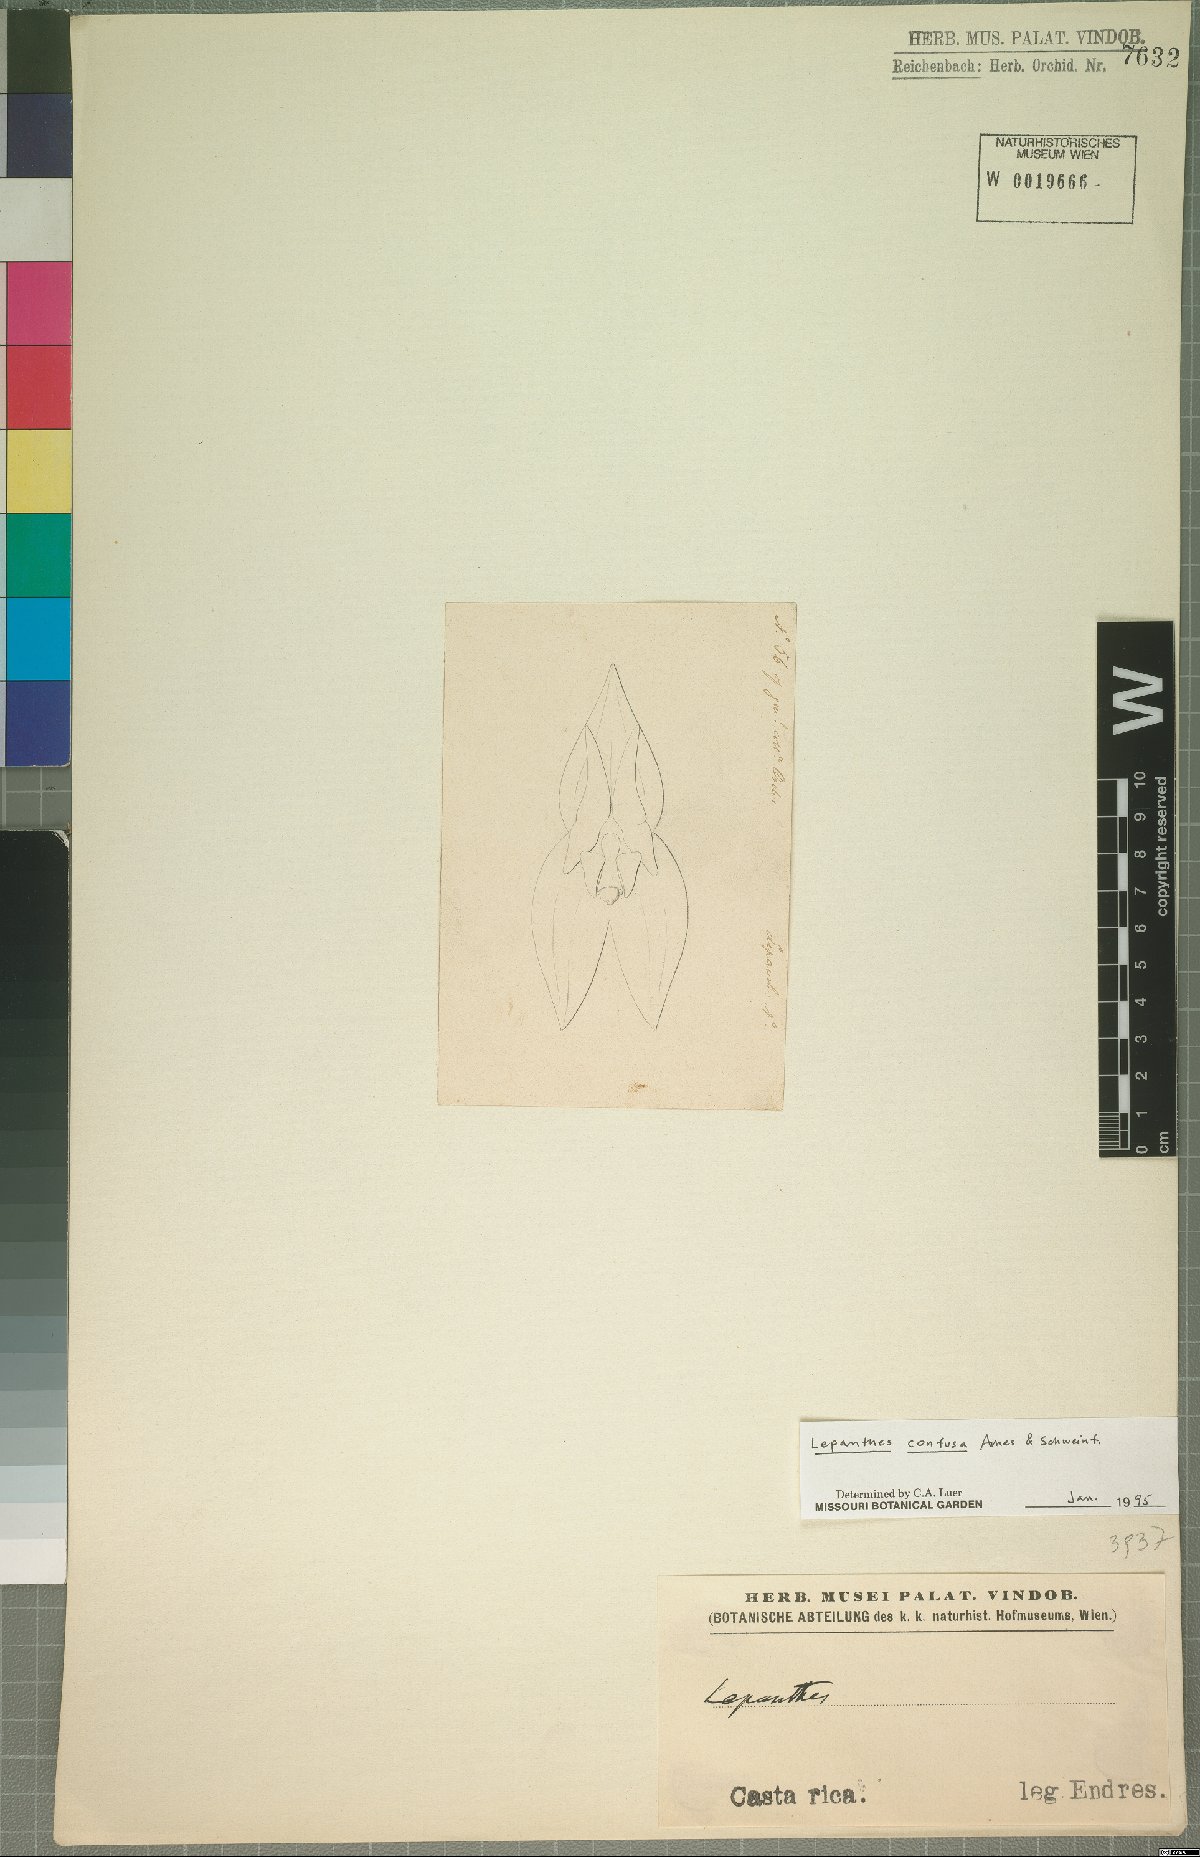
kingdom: Plantae
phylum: Tracheophyta
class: Liliopsida
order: Asparagales
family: Orchidaceae
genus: Lepanthes
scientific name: Lepanthes confusa
